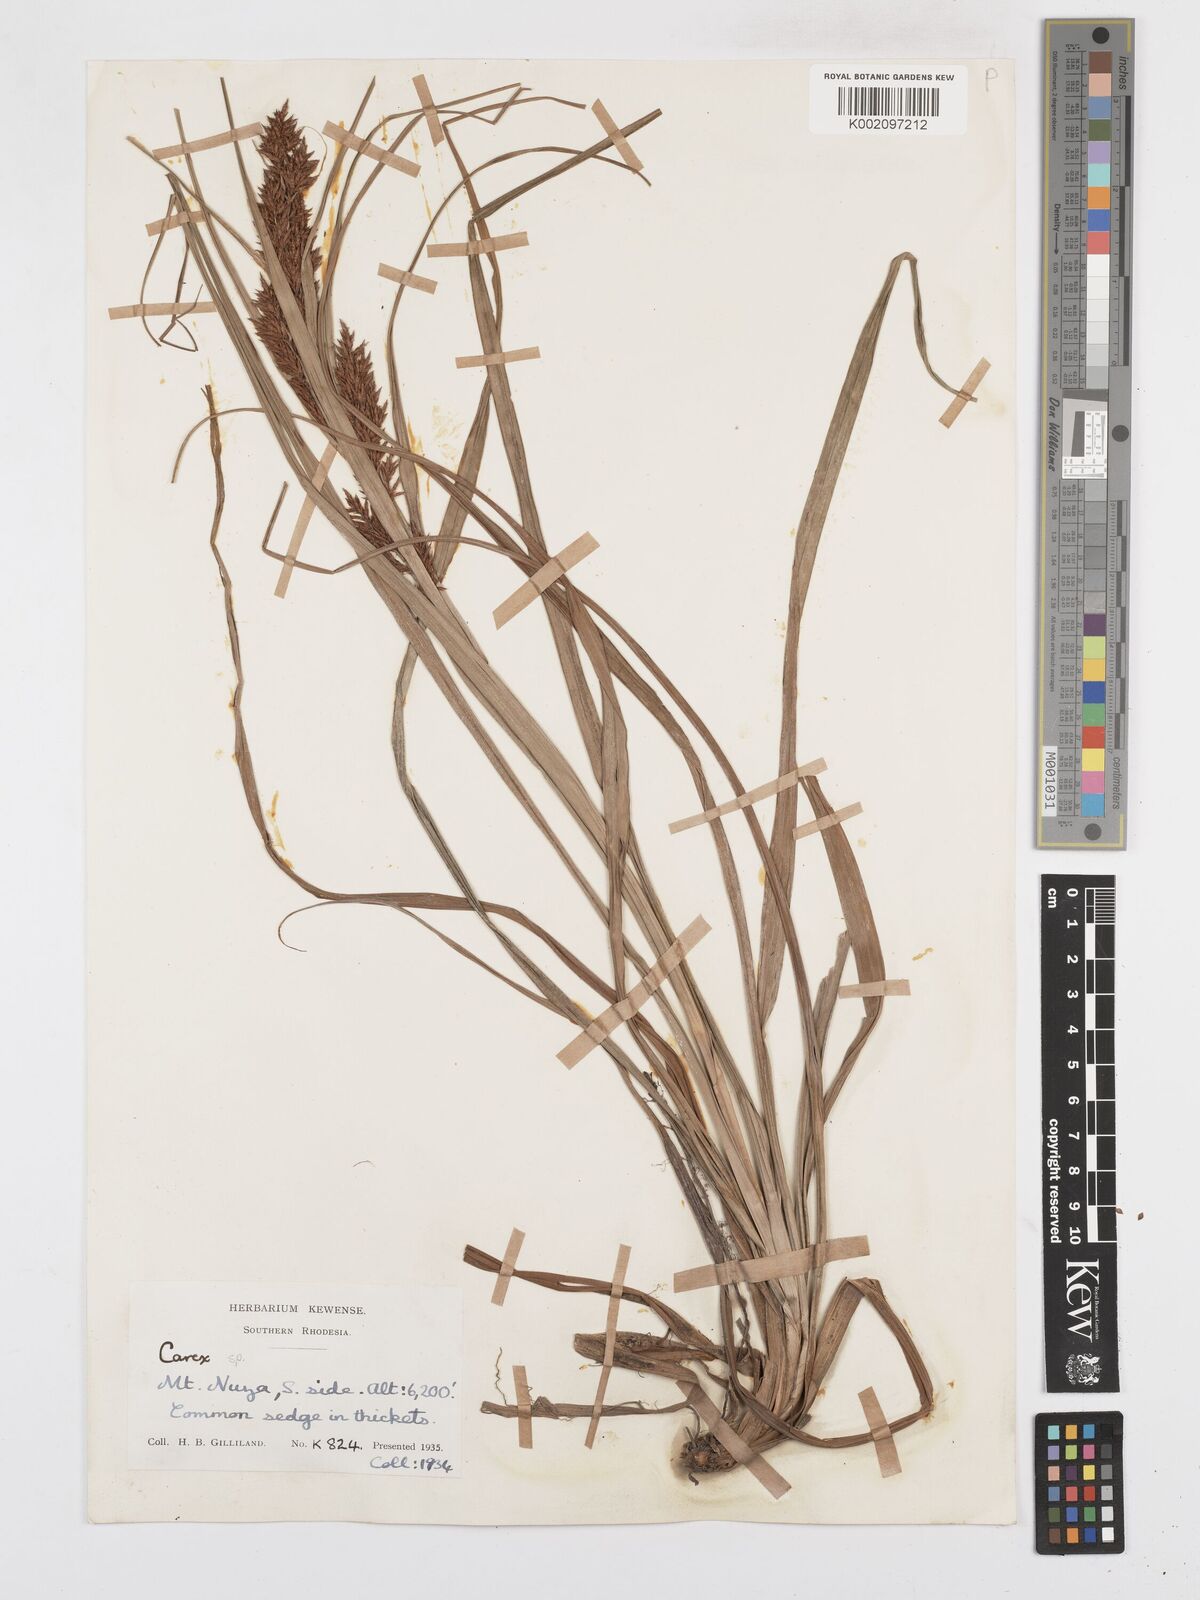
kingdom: Plantae
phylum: Tracheophyta
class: Liliopsida
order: Poales
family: Cyperaceae
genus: Carex
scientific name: Carex
